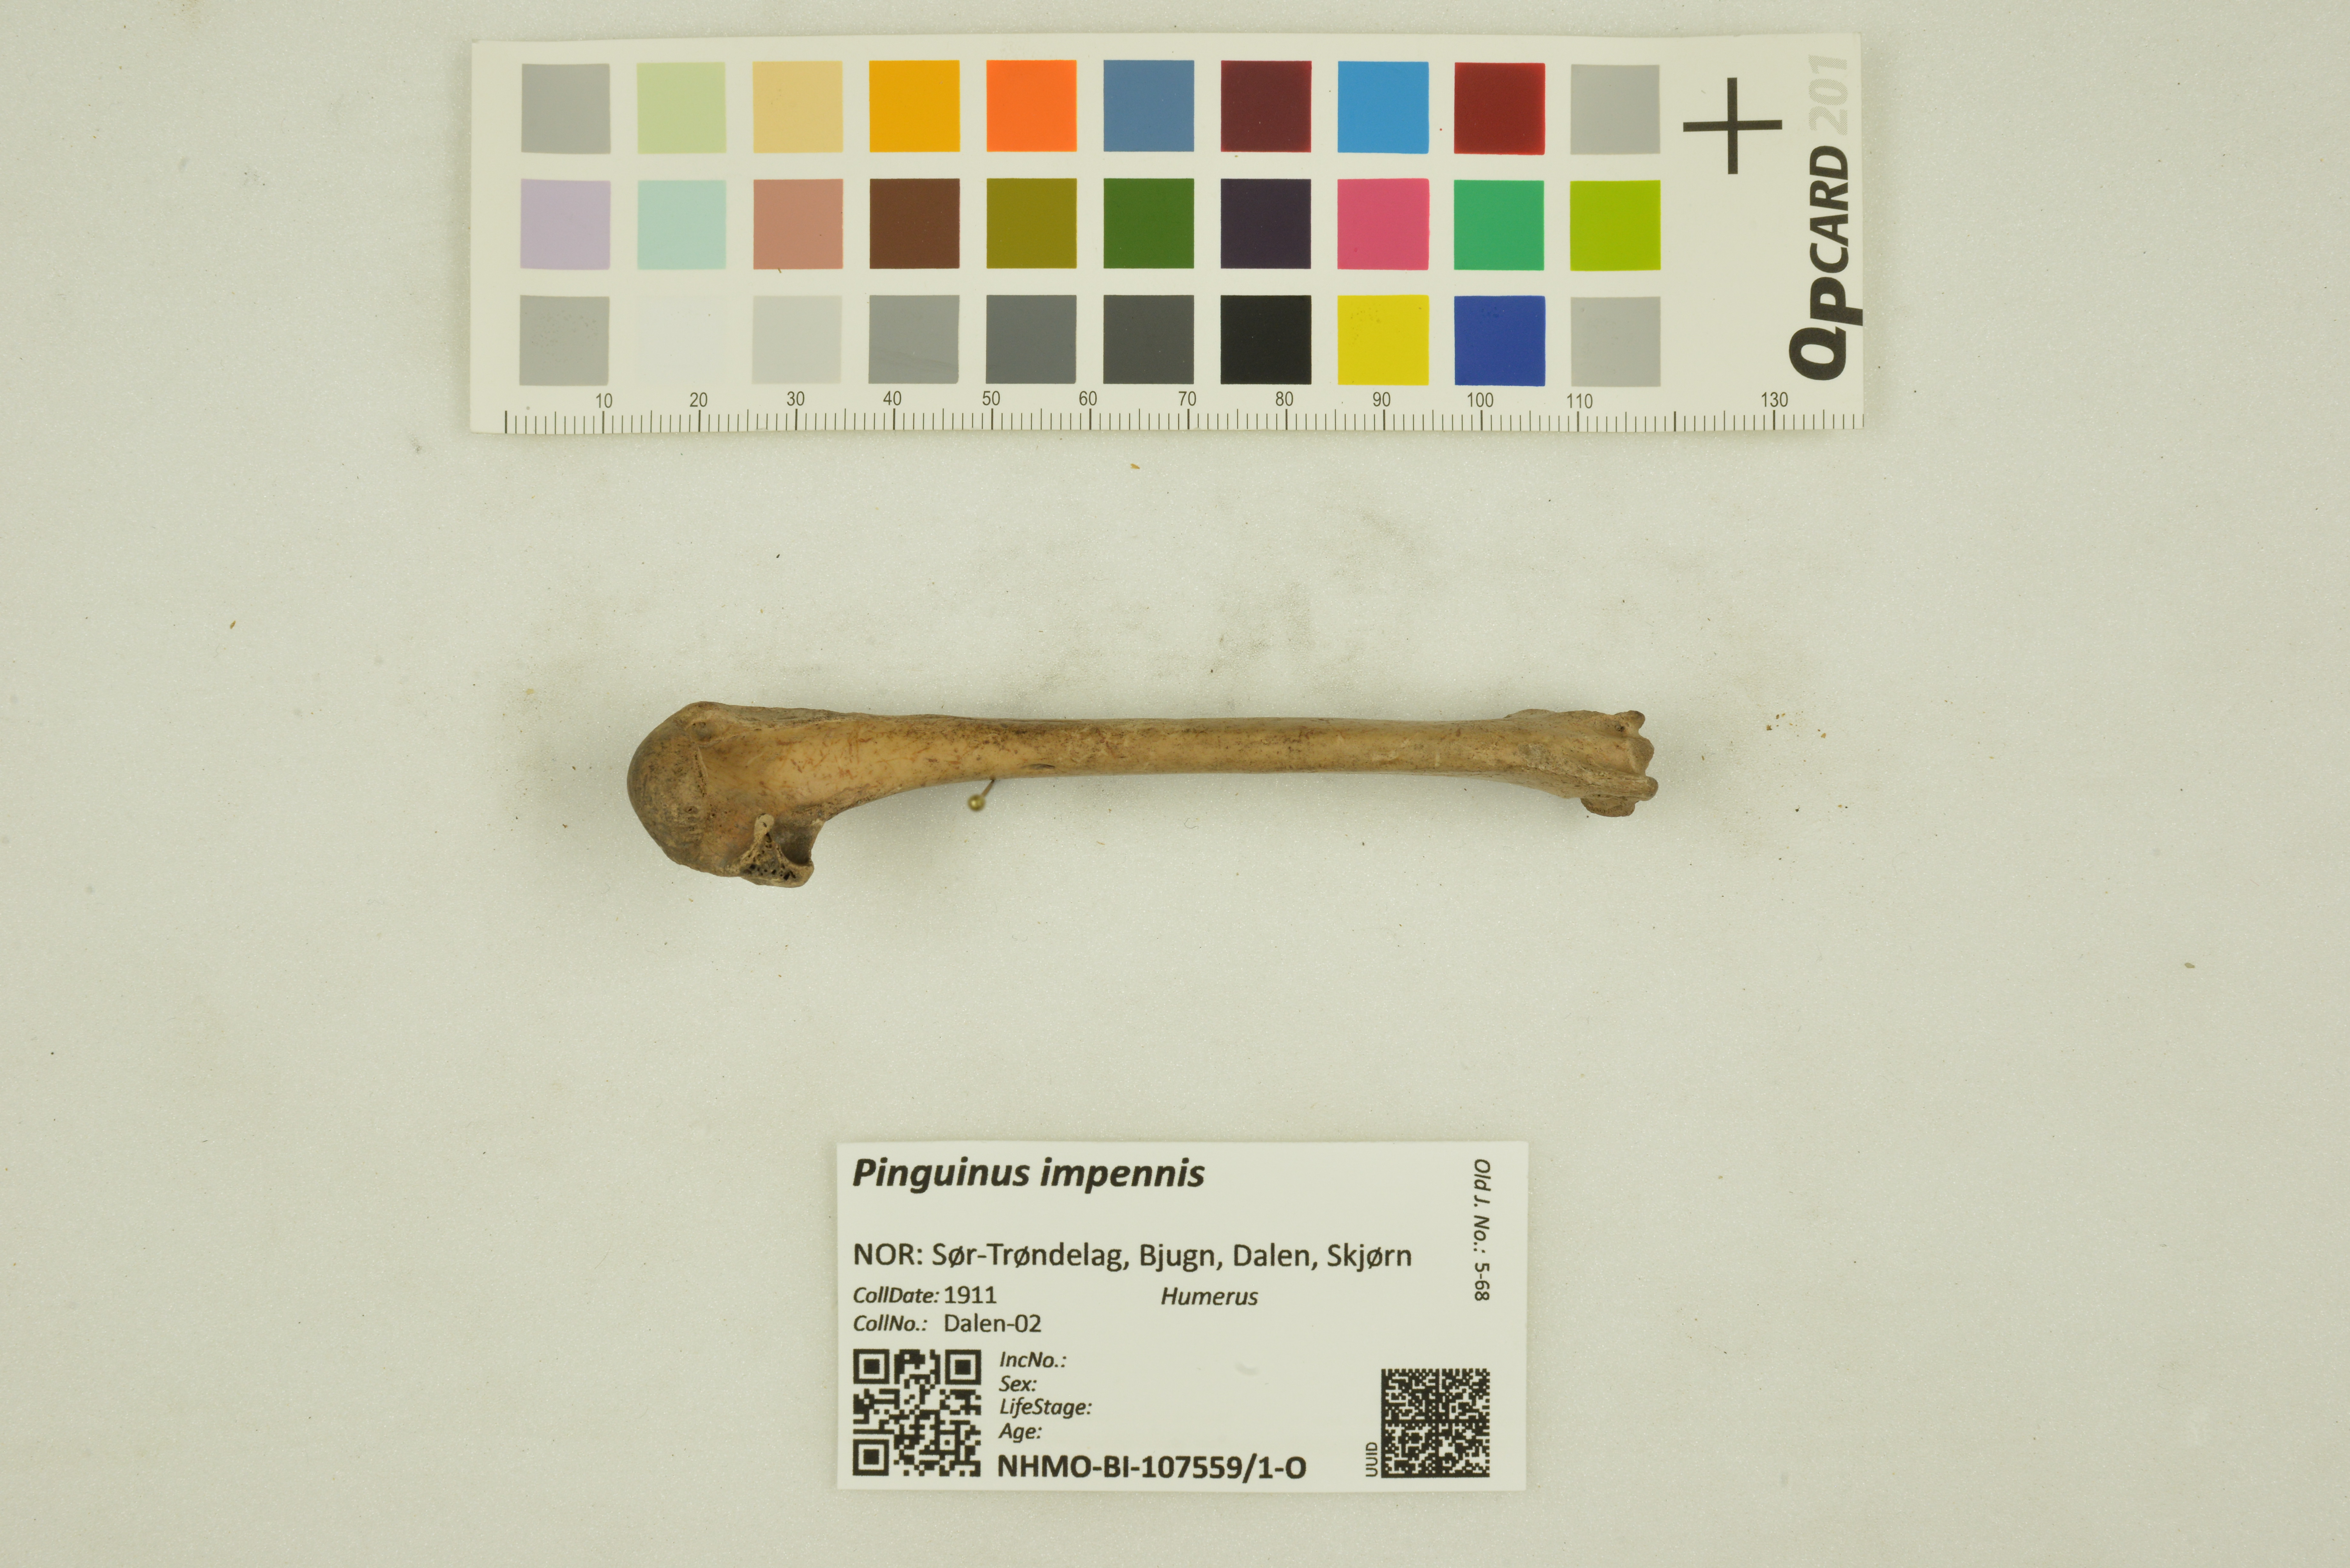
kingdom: Animalia
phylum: Chordata
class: Aves
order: Charadriiformes
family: Alcidae
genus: Pinguinus
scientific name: Pinguinus impennis
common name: Great auk
